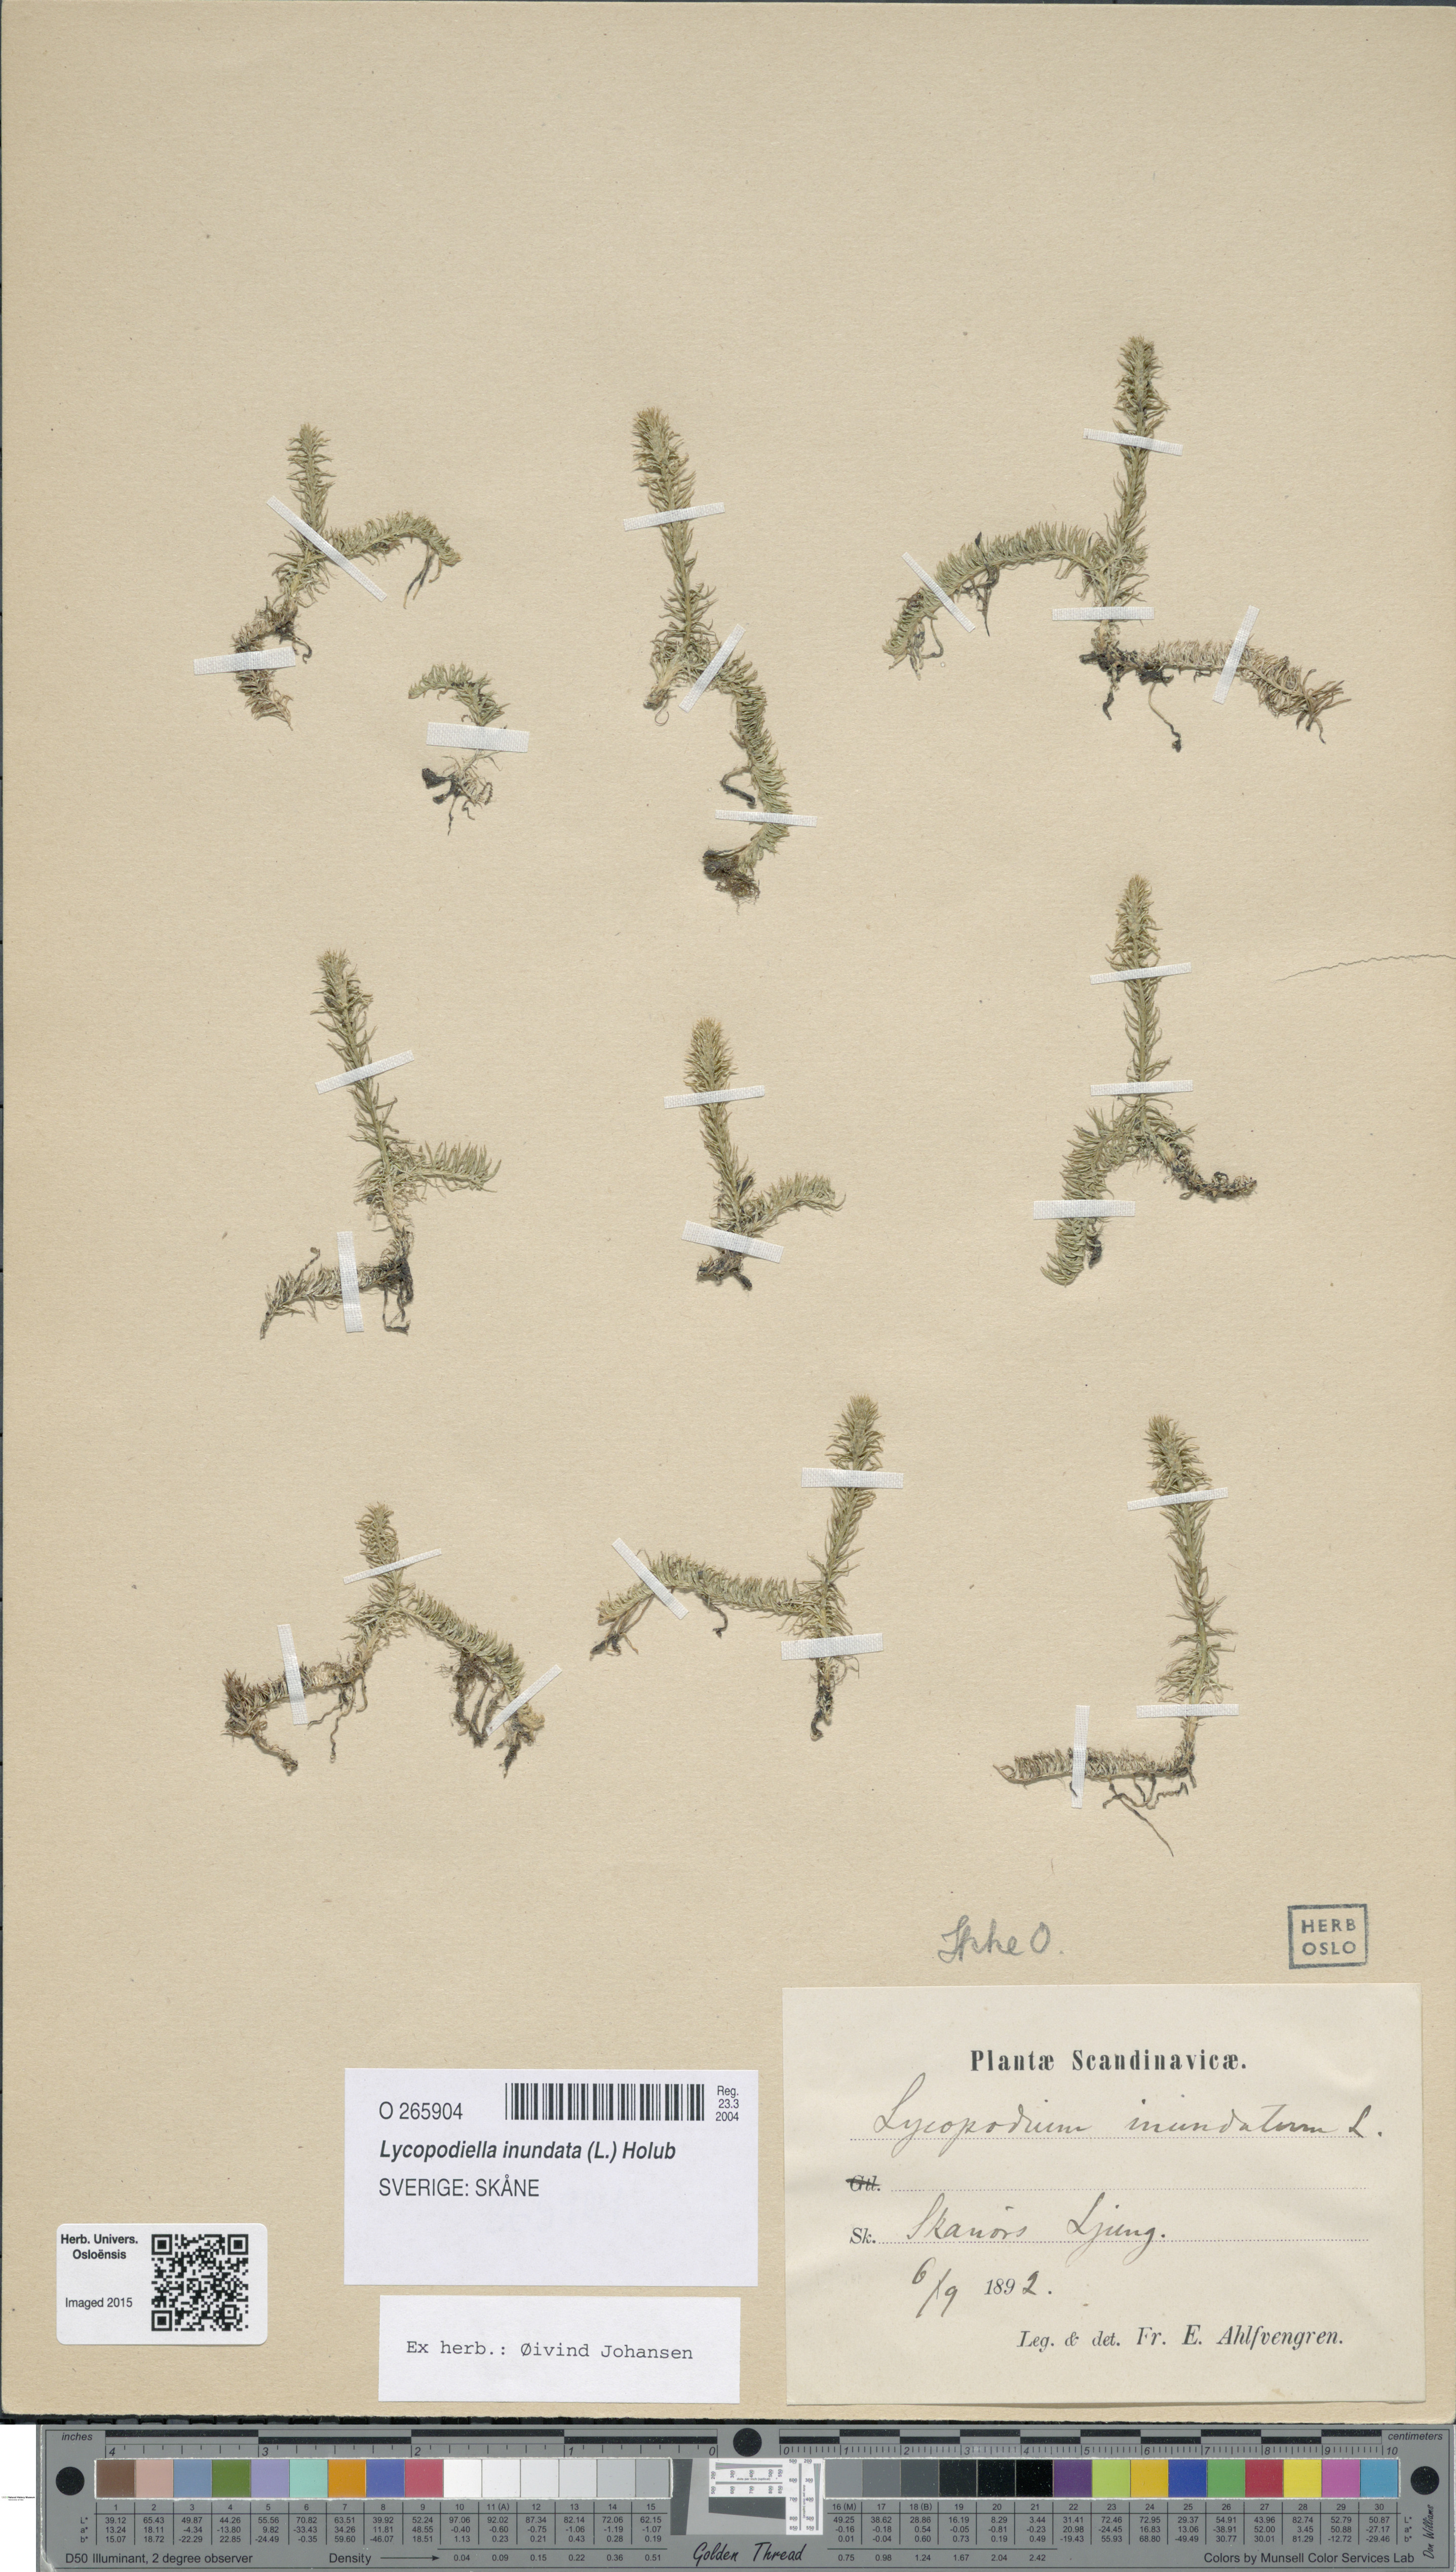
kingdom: Plantae
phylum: Tracheophyta
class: Lycopodiopsida
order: Lycopodiales
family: Lycopodiaceae
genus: Lycopodiella
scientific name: Lycopodiella inundata
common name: Marsh clubmoss
